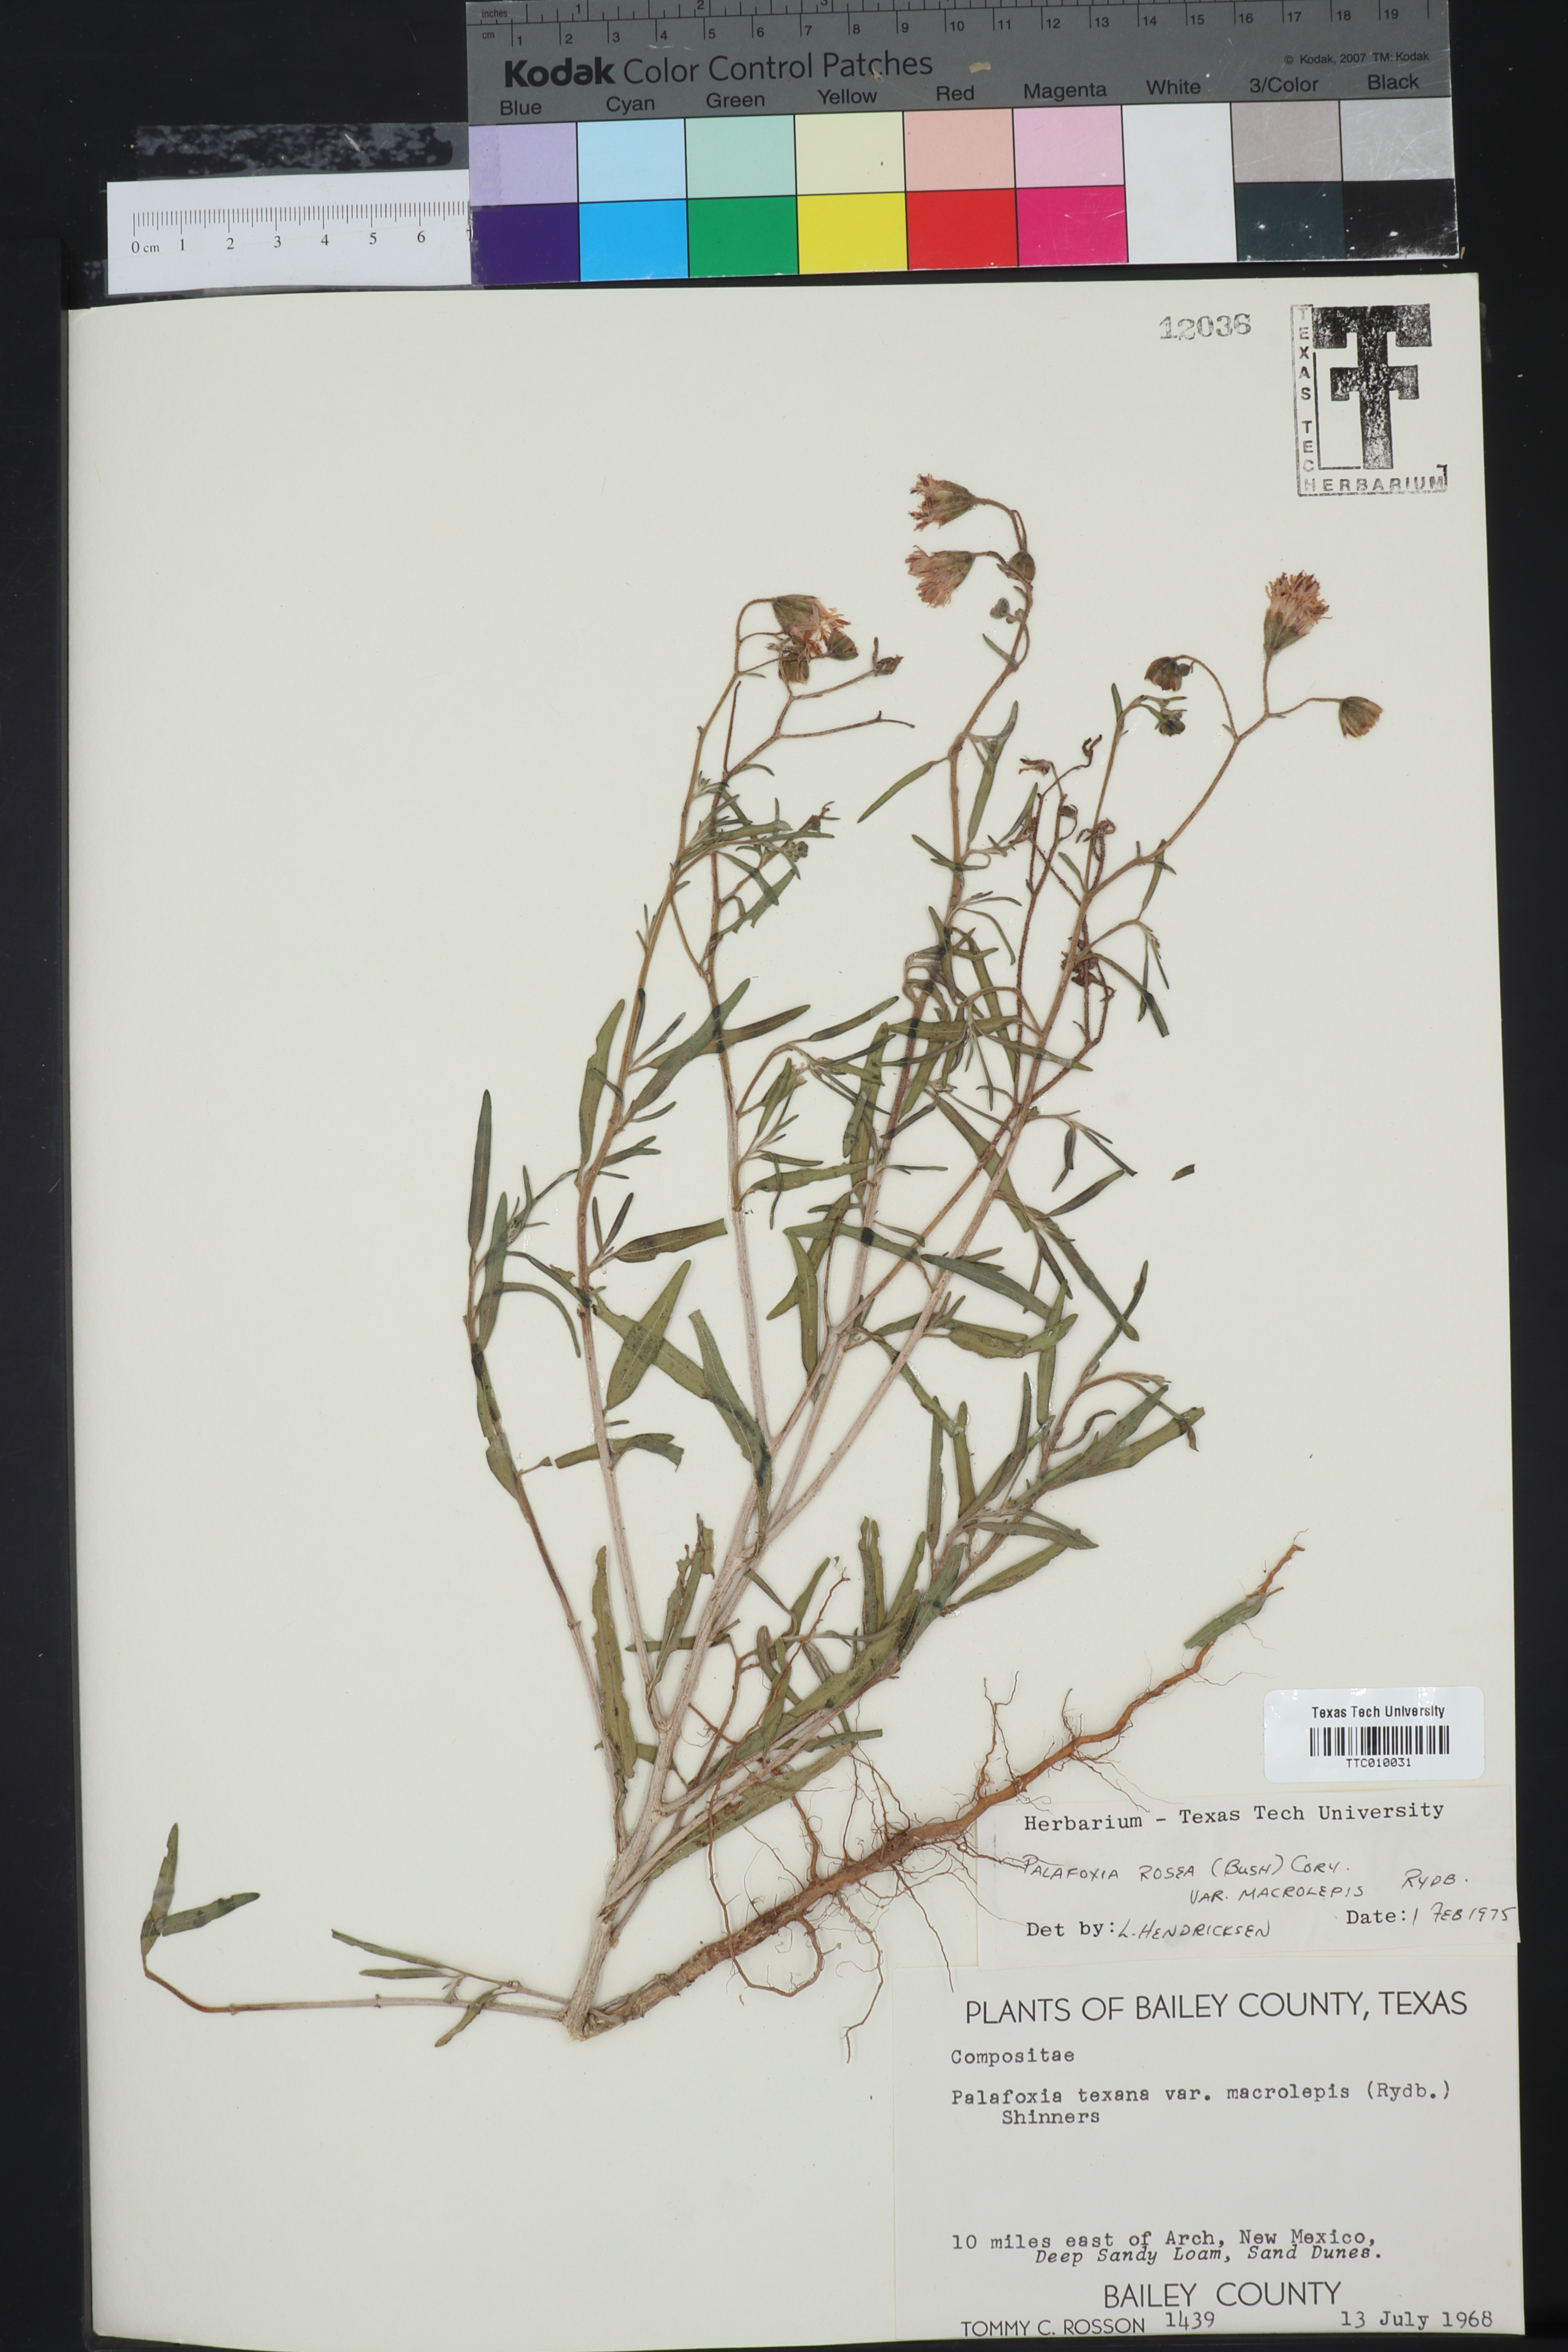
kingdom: Plantae
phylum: Tracheophyta
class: Magnoliopsida
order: Asterales
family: Asteraceae
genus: Palafoxia
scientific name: Palafoxia rosea
